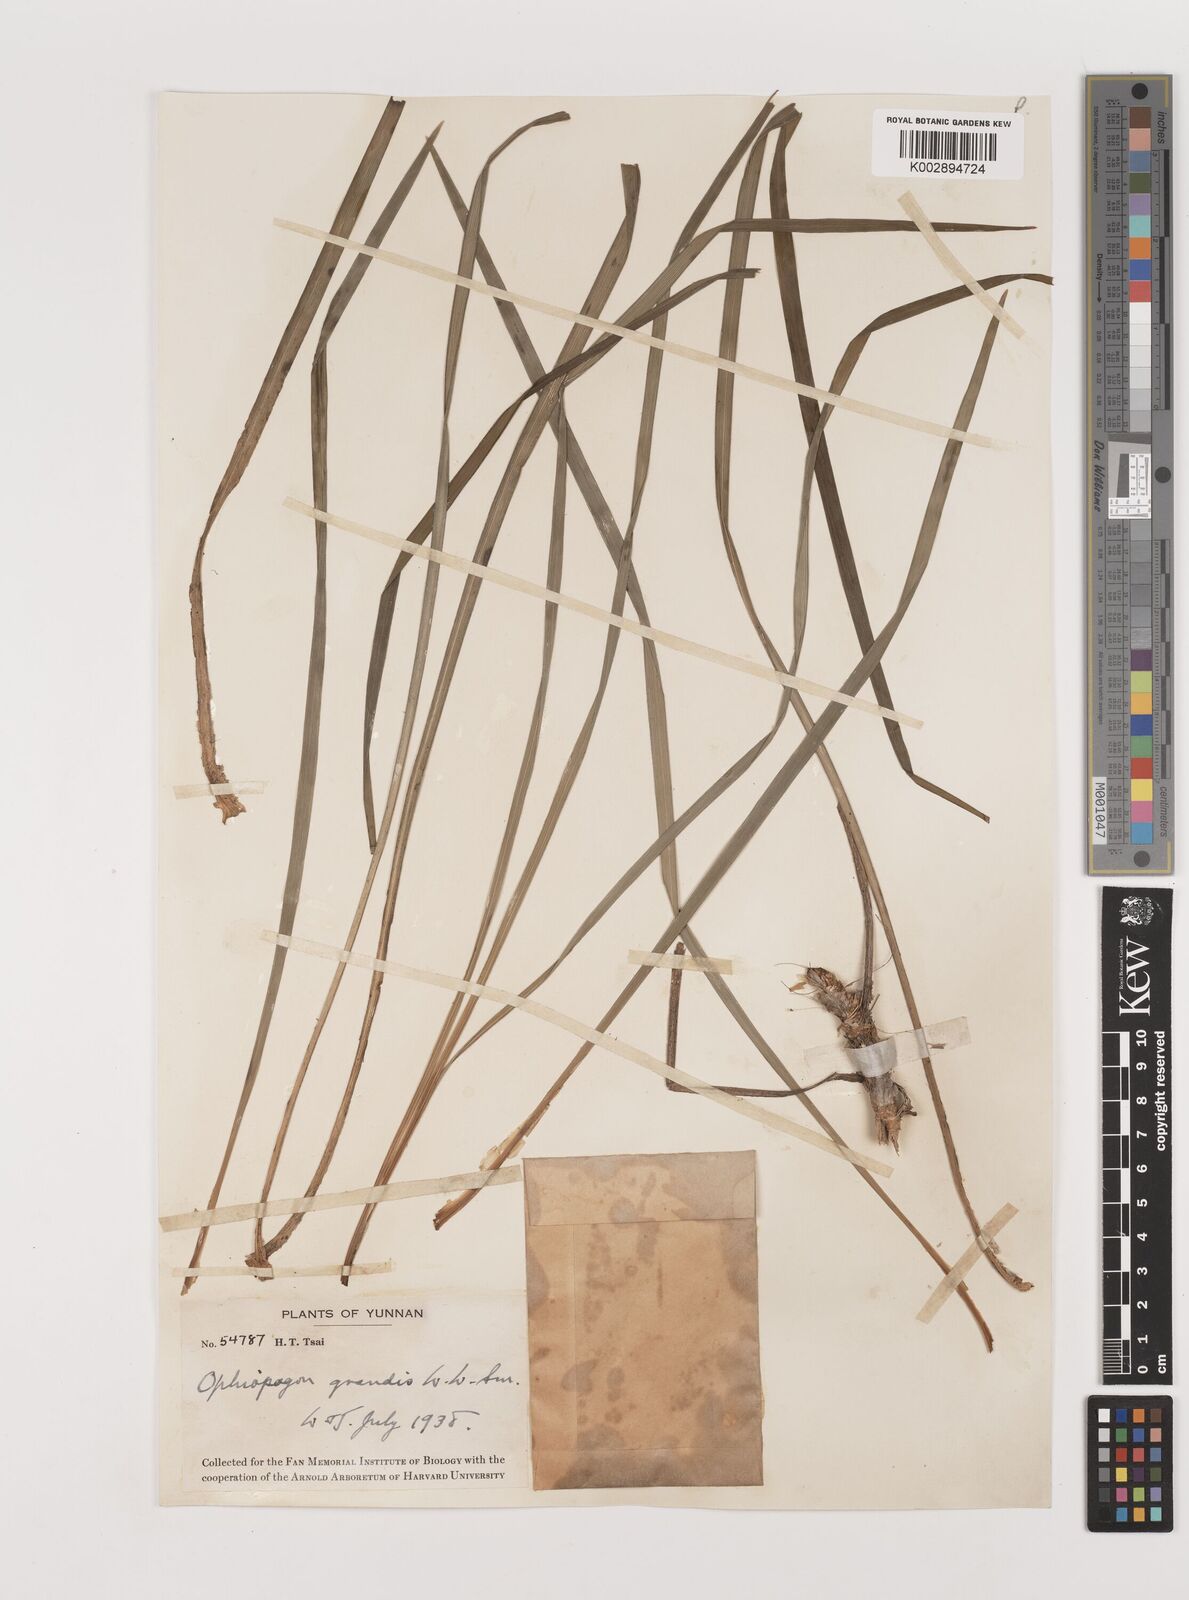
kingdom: Plantae
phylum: Tracheophyta
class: Liliopsida
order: Asparagales
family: Asparagaceae
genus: Ophiopogon
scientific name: Ophiopogon grandis
